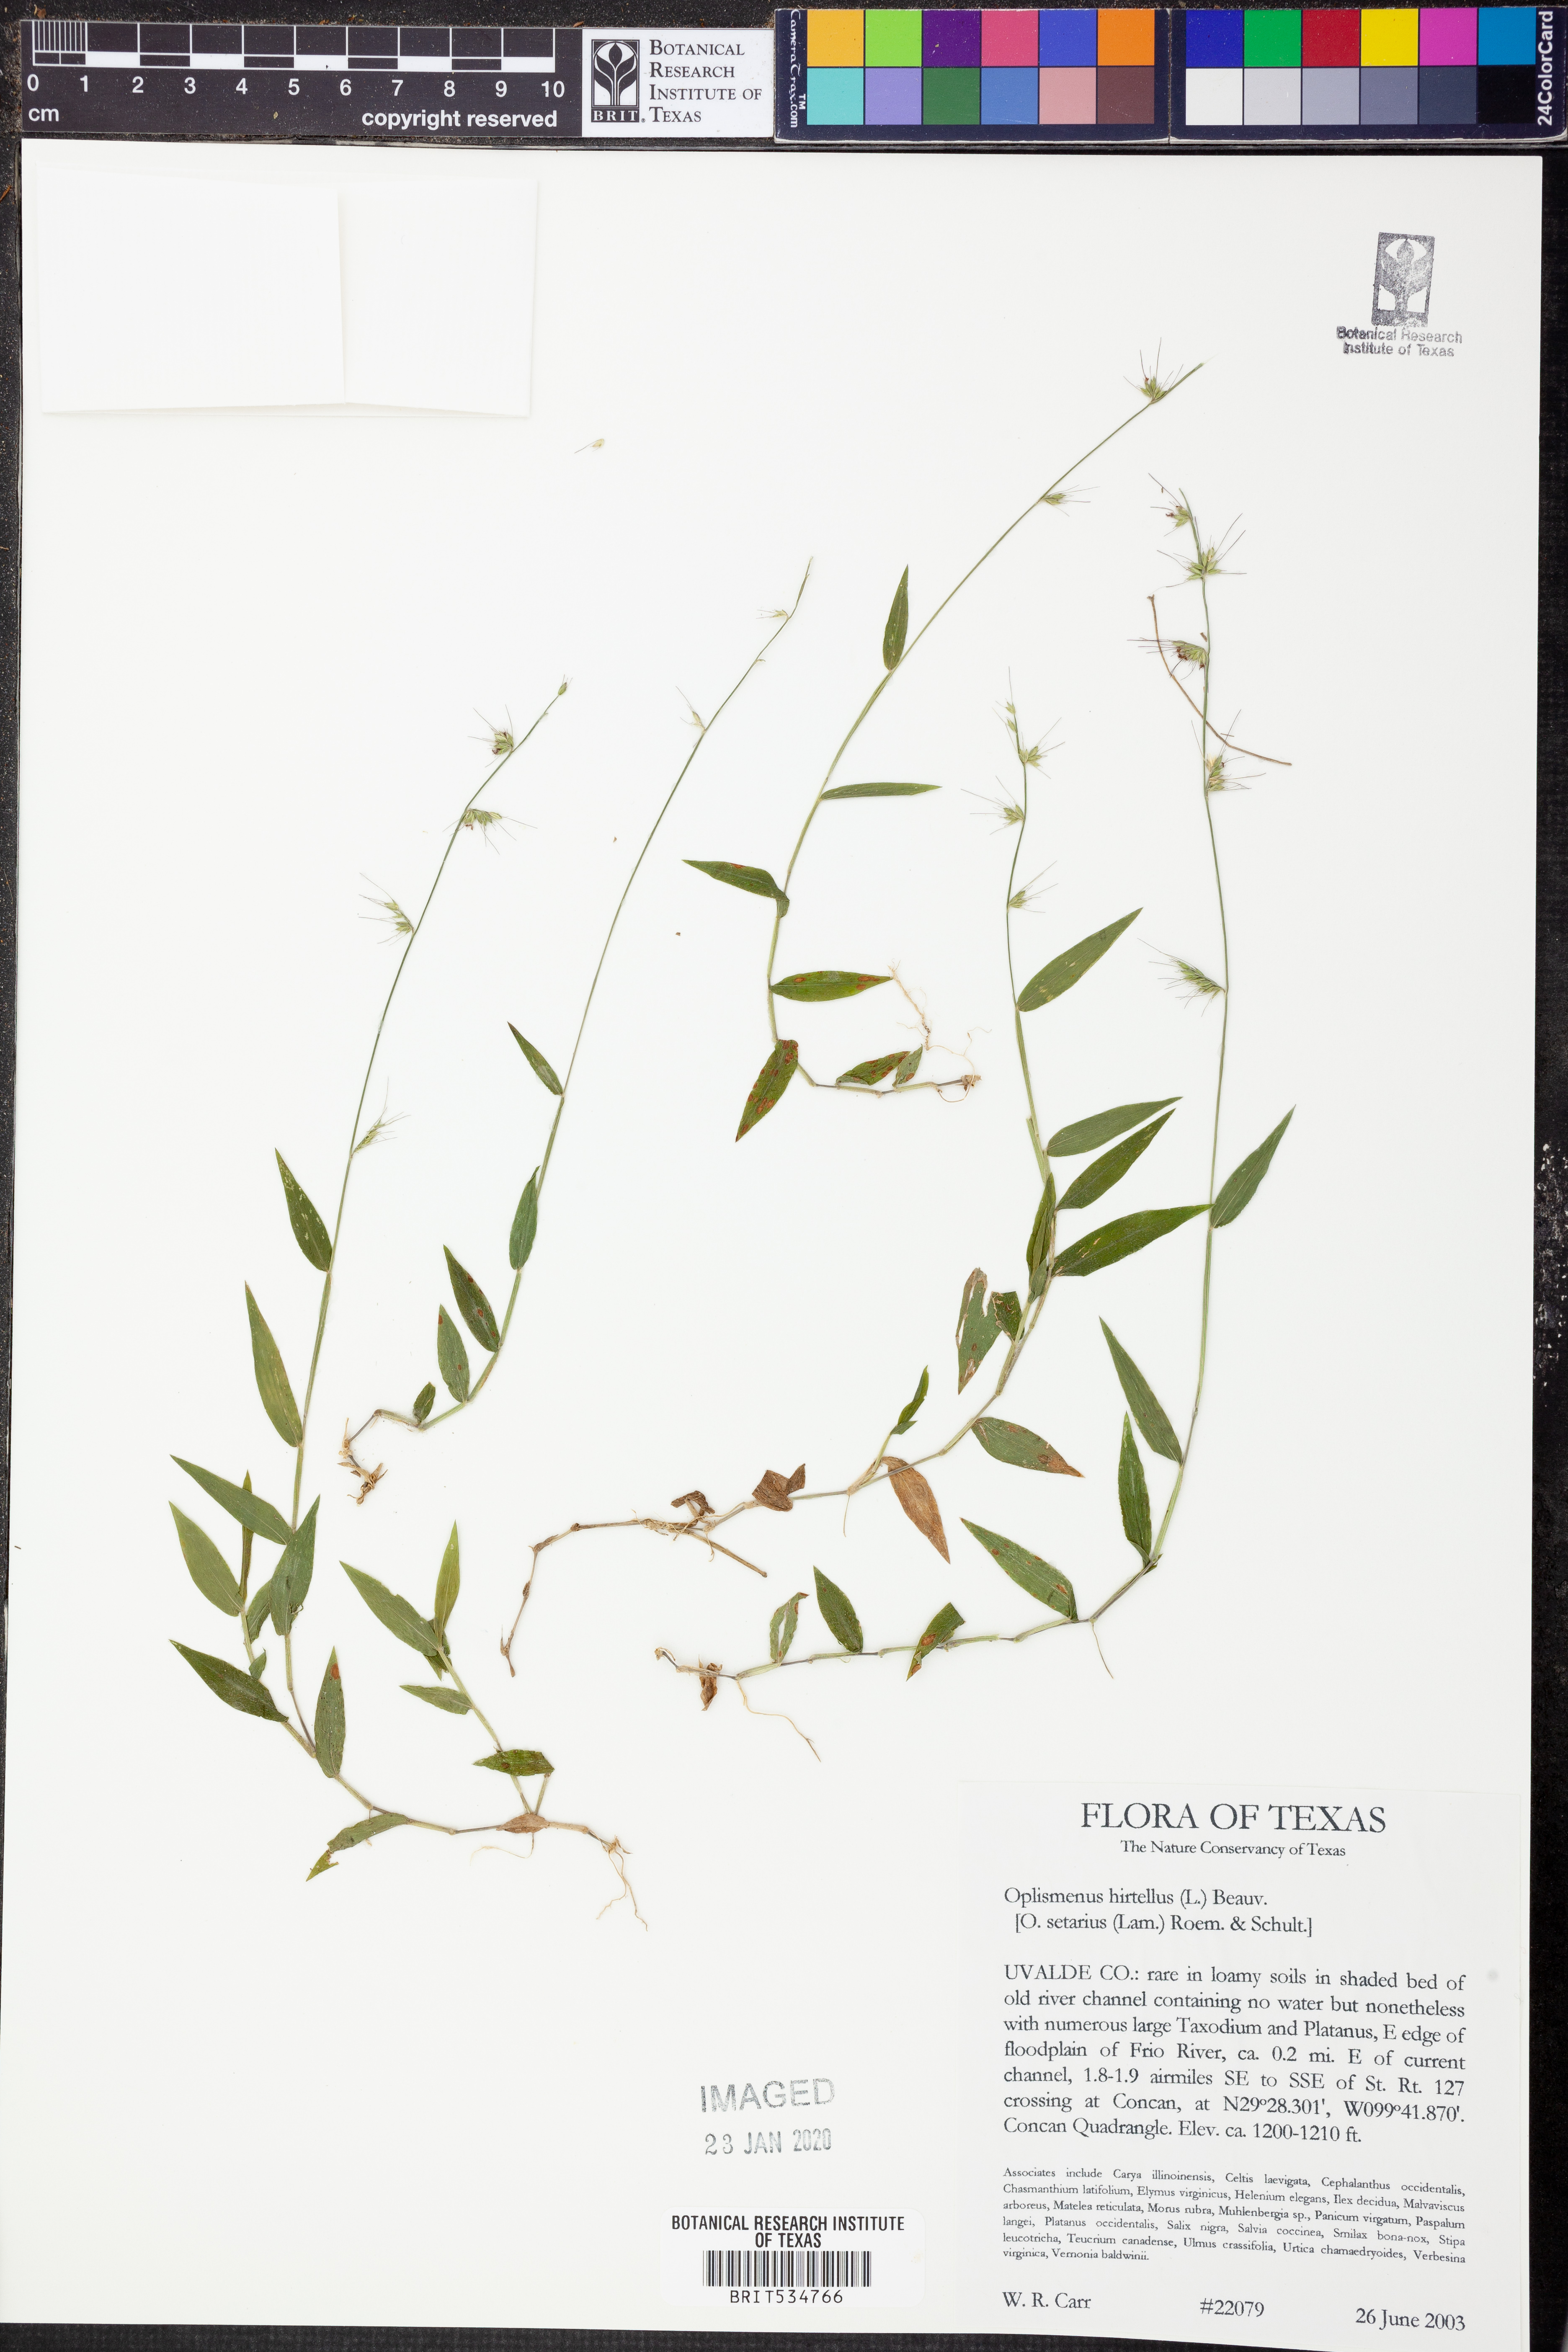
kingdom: Plantae
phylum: Tracheophyta
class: Liliopsida
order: Poales
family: Poaceae
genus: Oplismenus
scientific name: Oplismenus hirtellus
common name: Basketgrass
